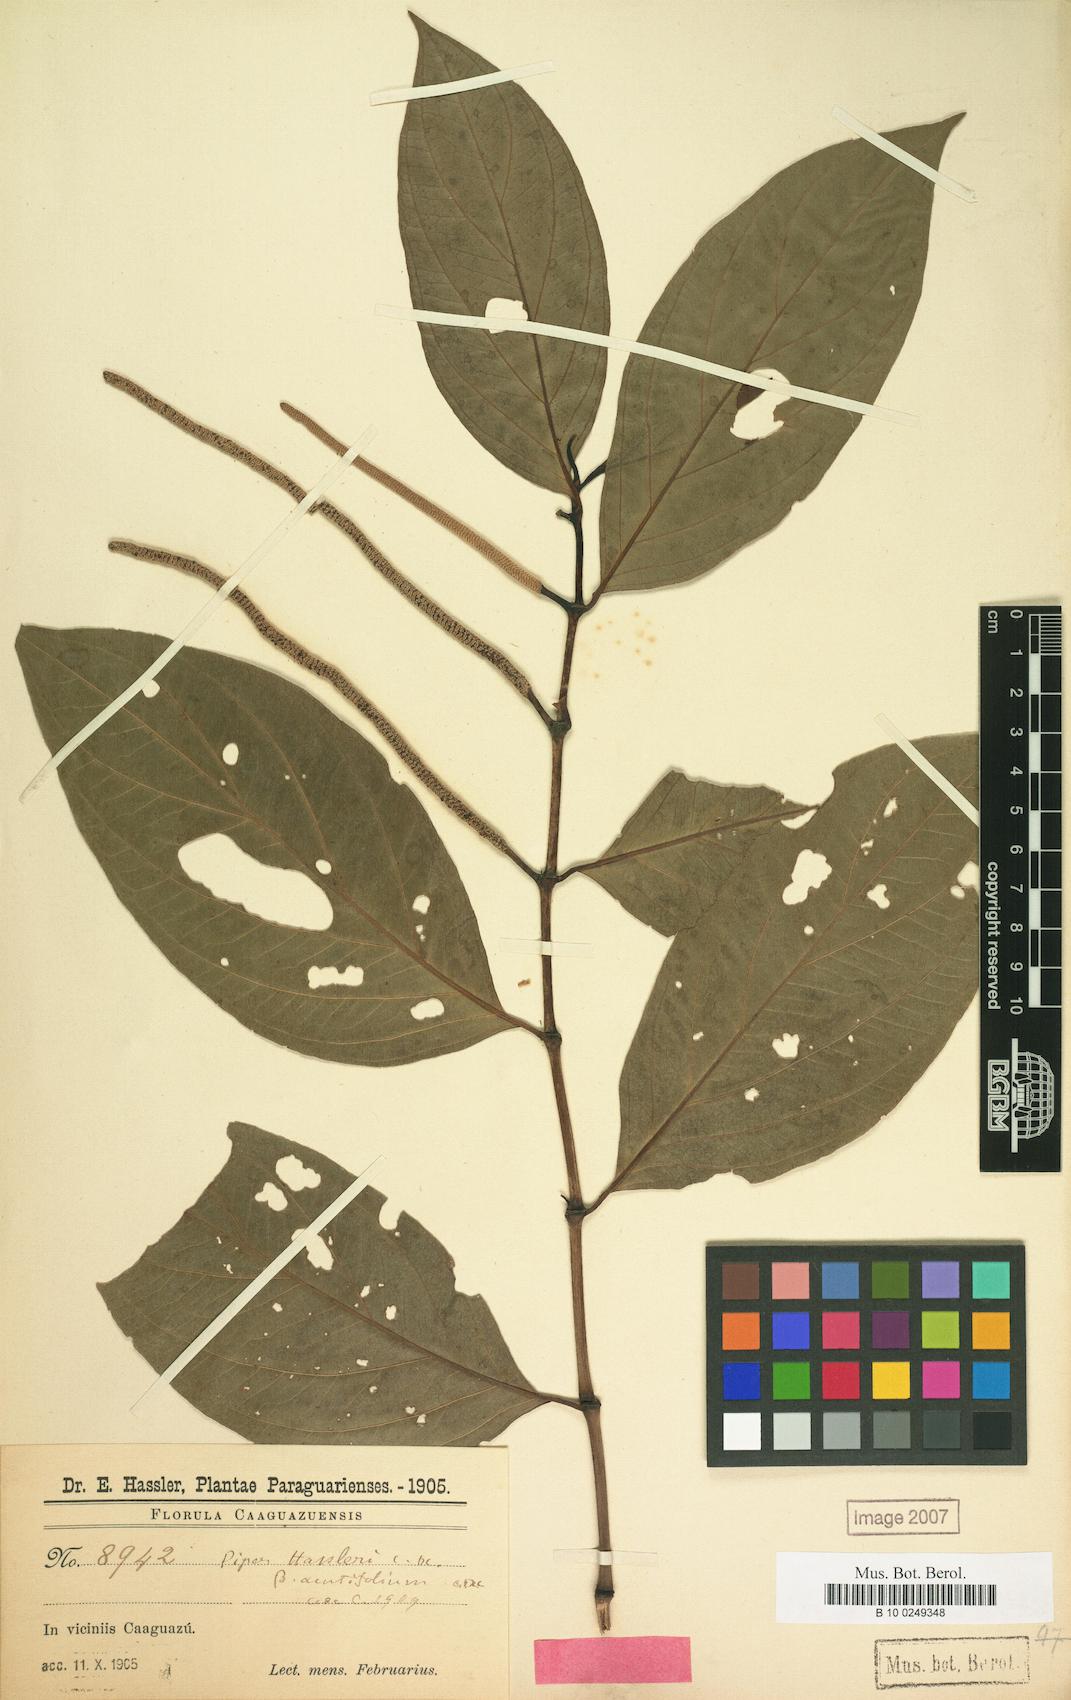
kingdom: Plantae
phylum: Tracheophyta
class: Magnoliopsida
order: Piperales
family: Piperaceae
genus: Piper
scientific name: Piper hassleri
